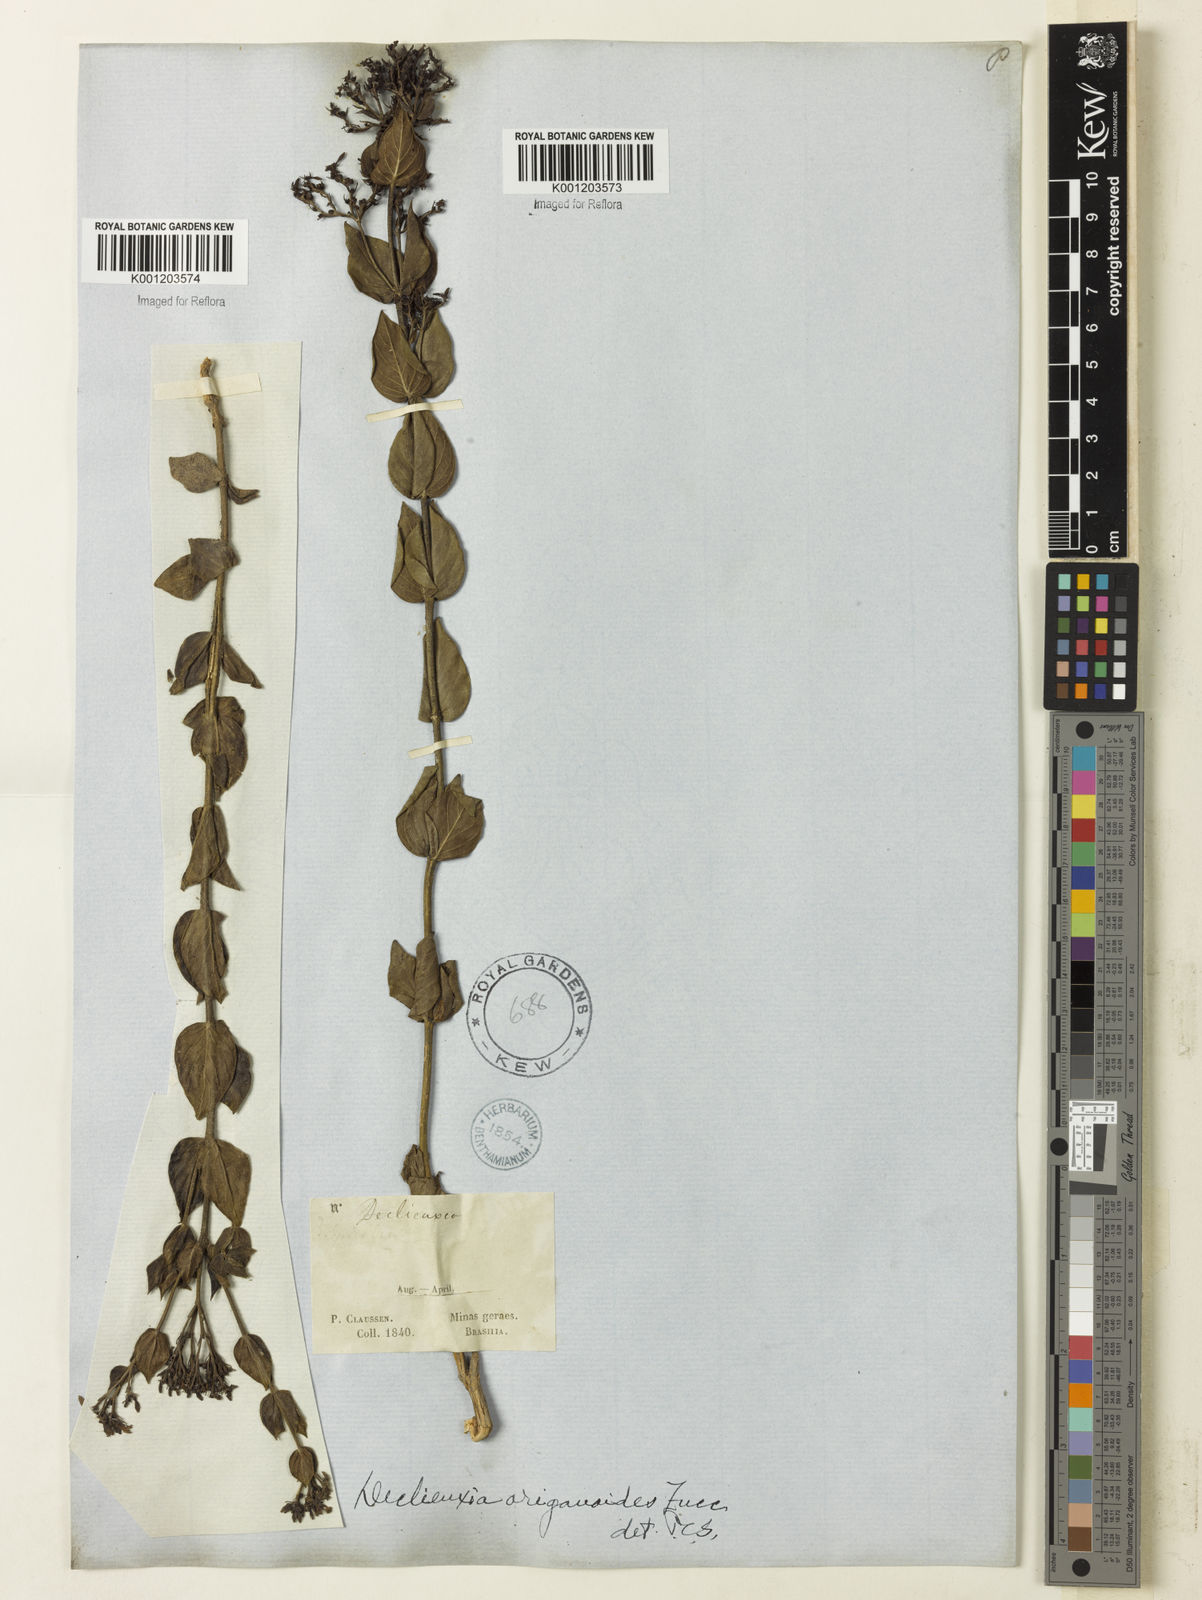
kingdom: Plantae
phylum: Tracheophyta
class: Magnoliopsida
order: Gentianales
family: Rubiaceae
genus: Declieuxia
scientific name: Declieuxia fruticosa
